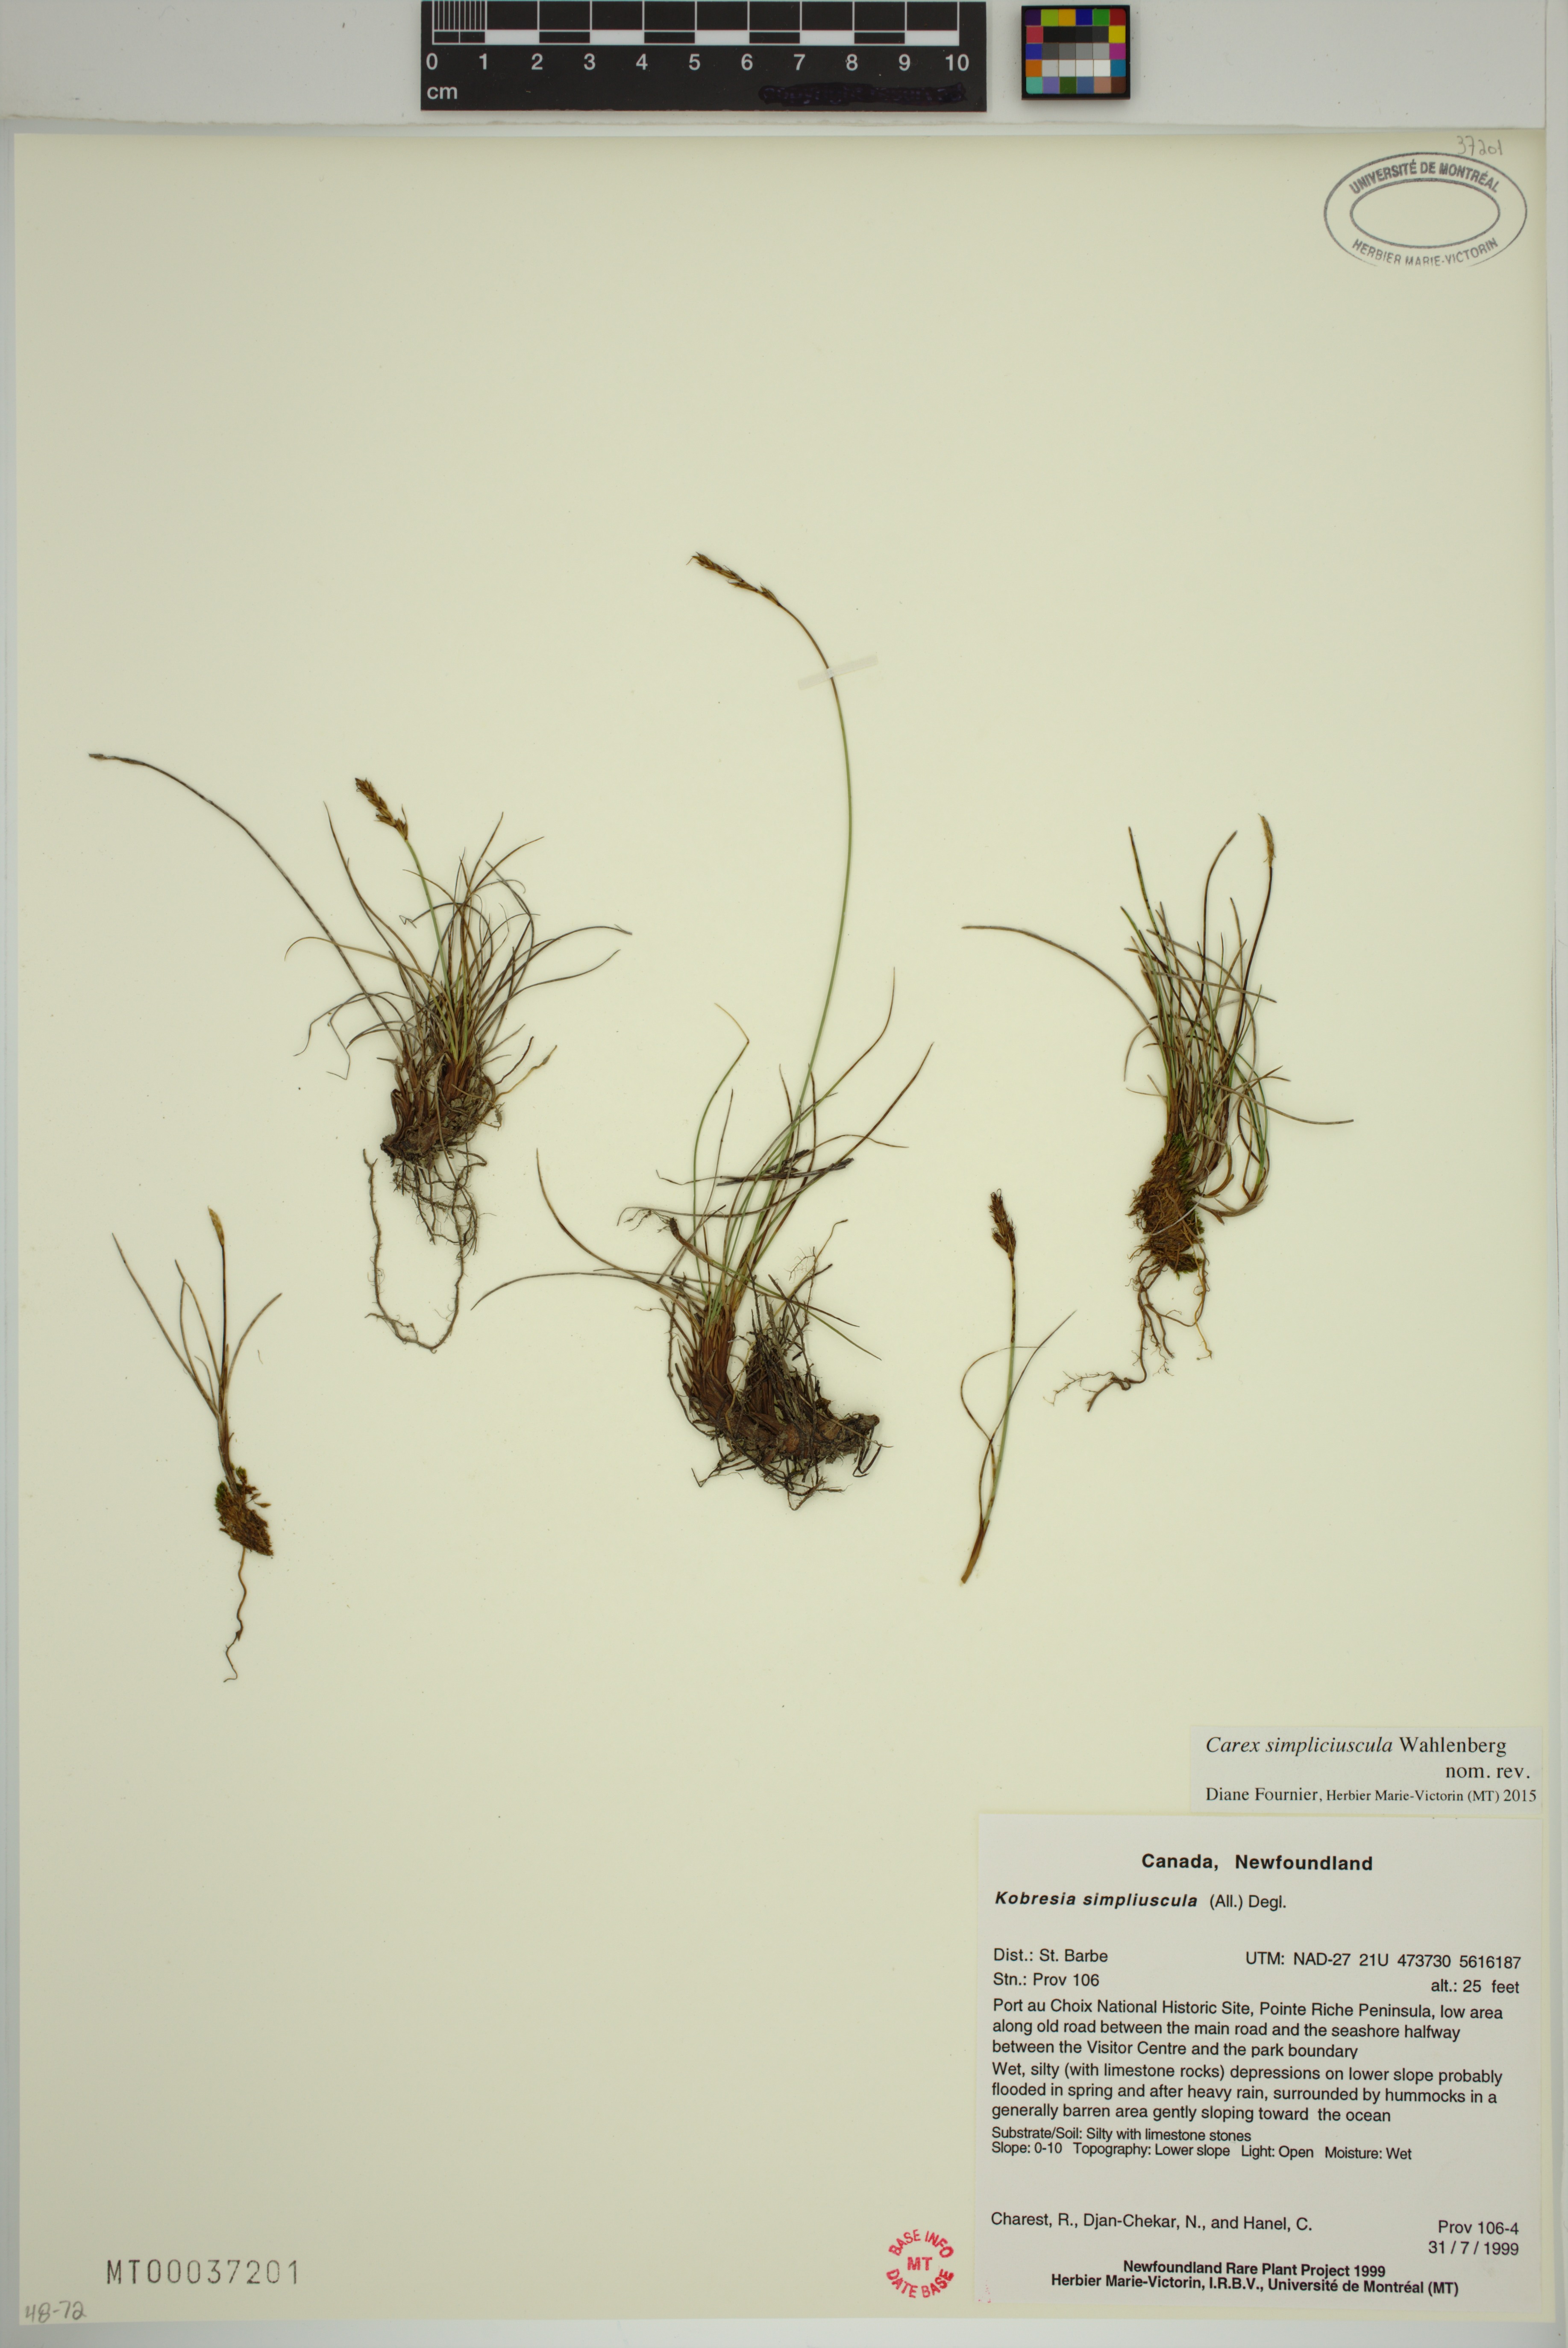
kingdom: Plantae
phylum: Tracheophyta
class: Liliopsida
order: Poales
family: Cyperaceae
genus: Carex
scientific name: Carex simpliciuscula
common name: Simple bog sedge
